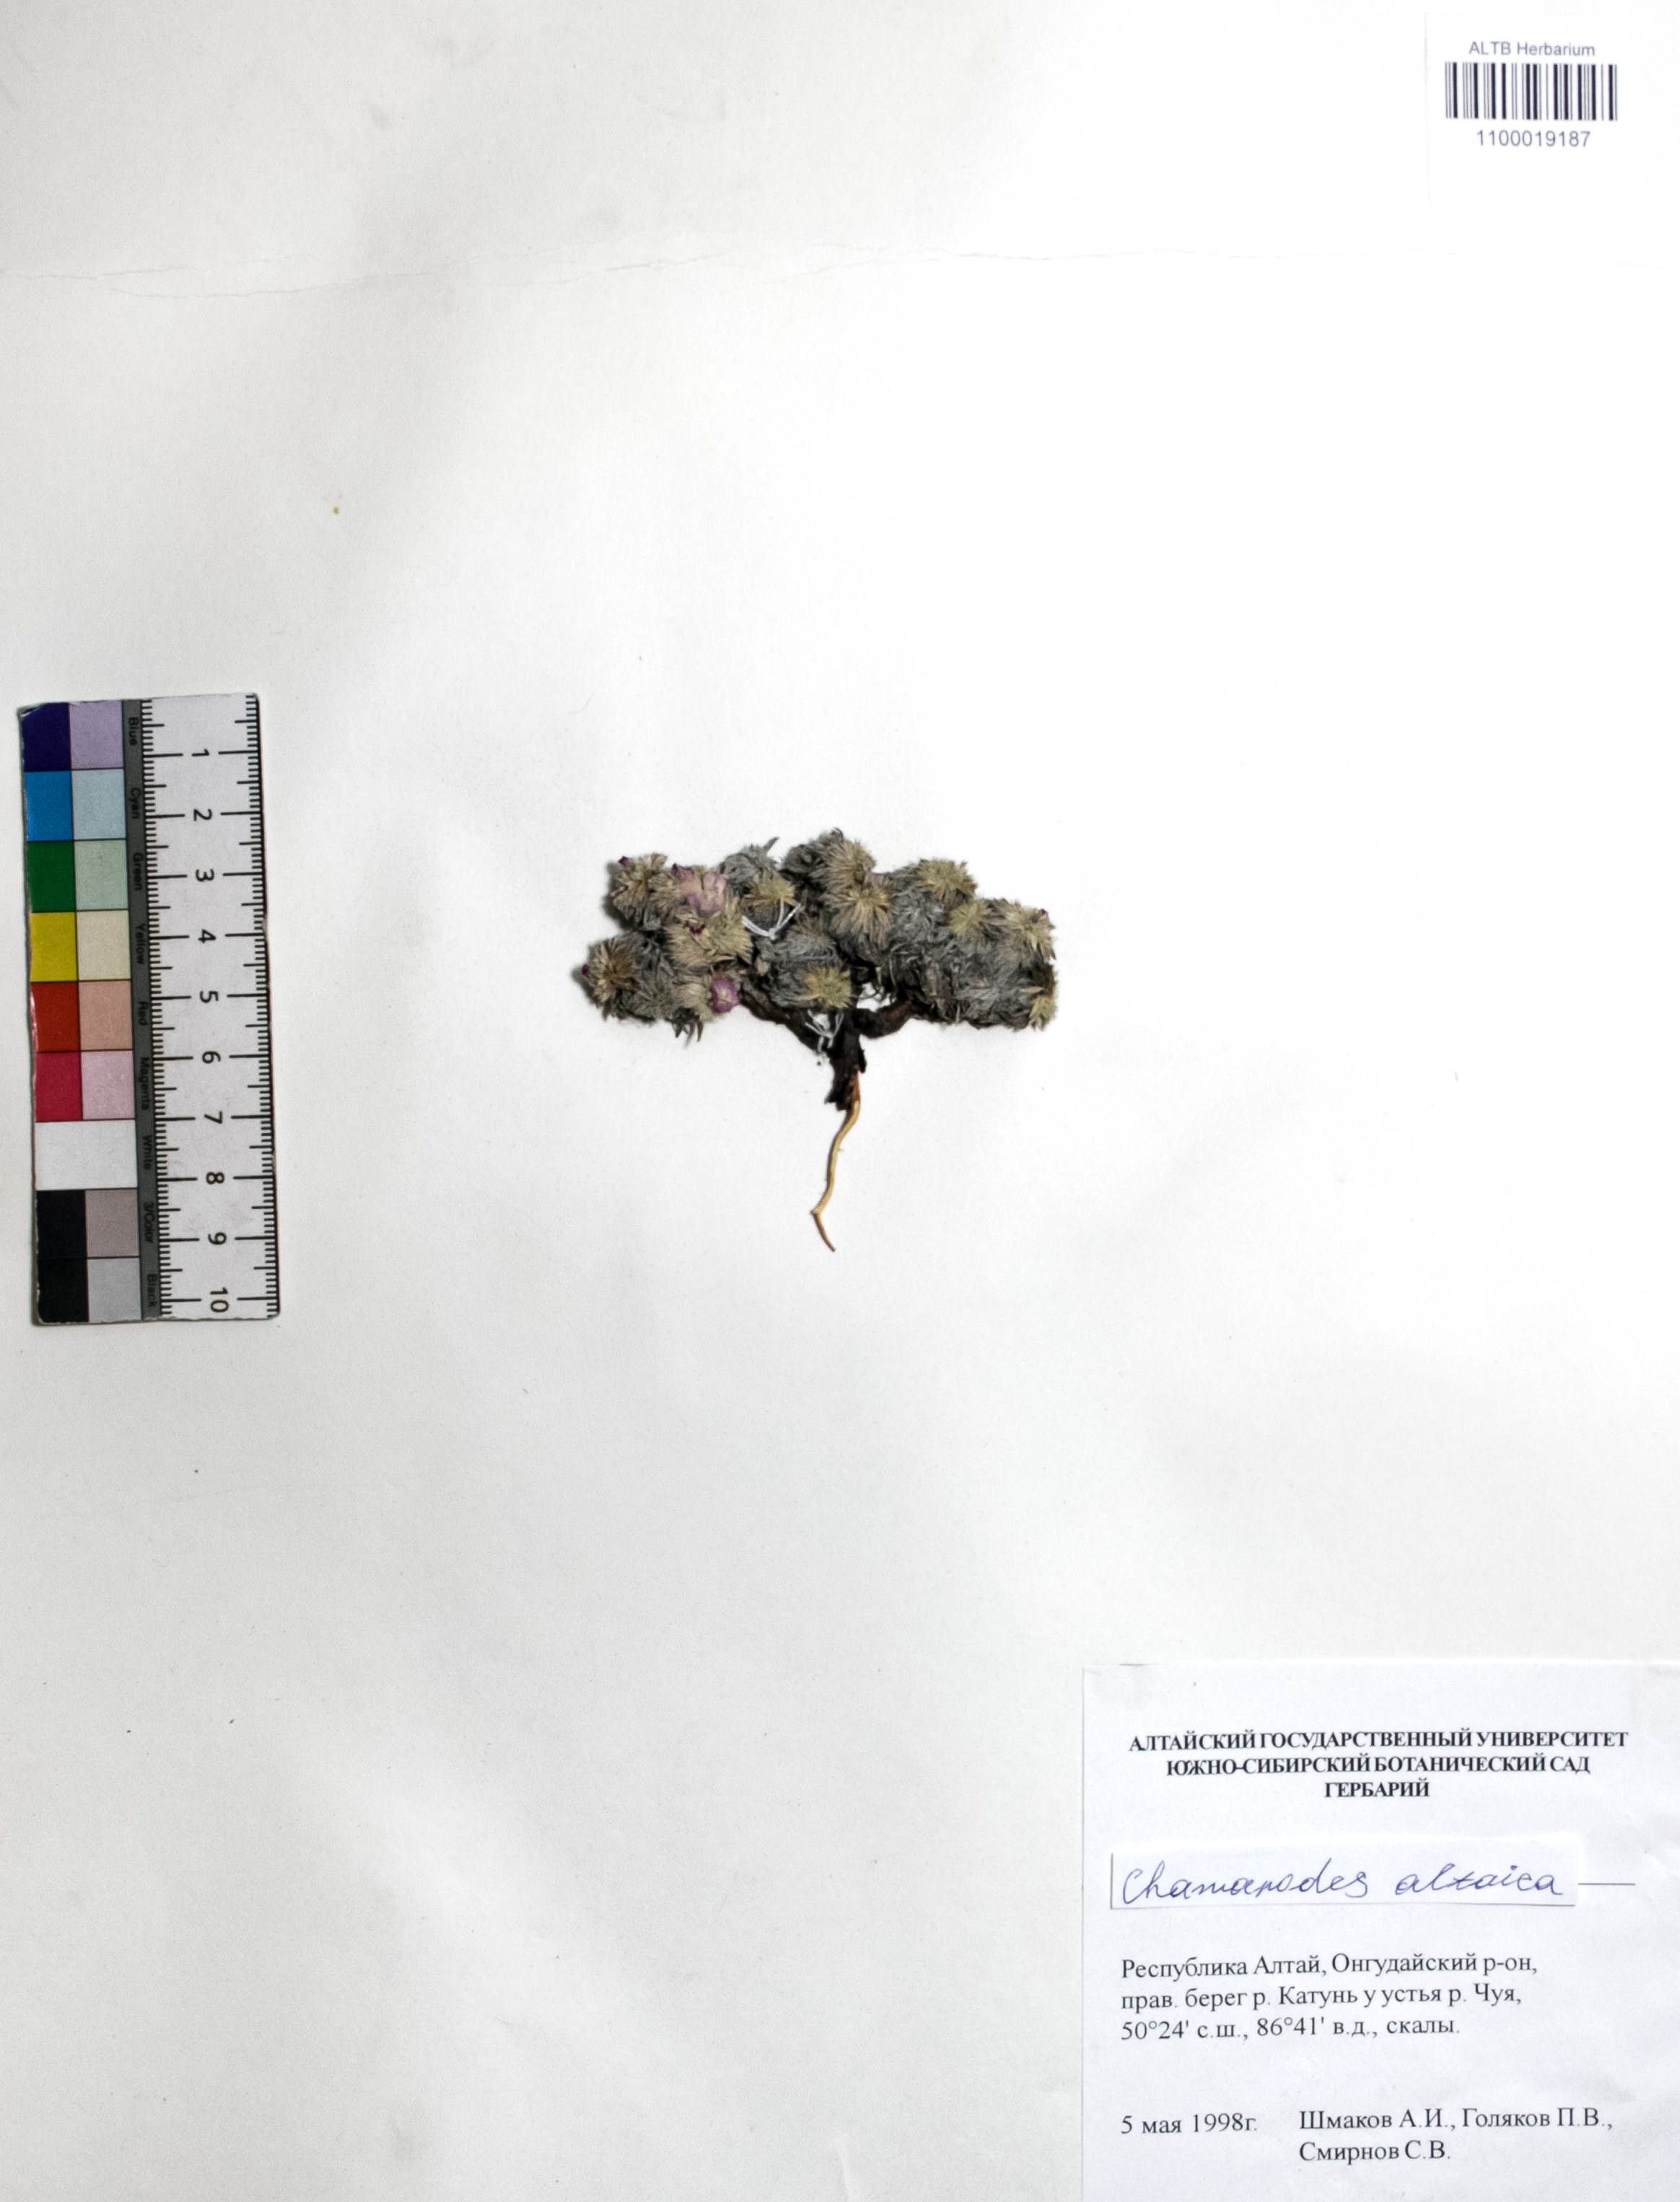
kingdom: Plantae
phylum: Tracheophyta
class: Magnoliopsida
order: Rosales
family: Rosaceae
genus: Chamaerhodos
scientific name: Chamaerhodos altaica
